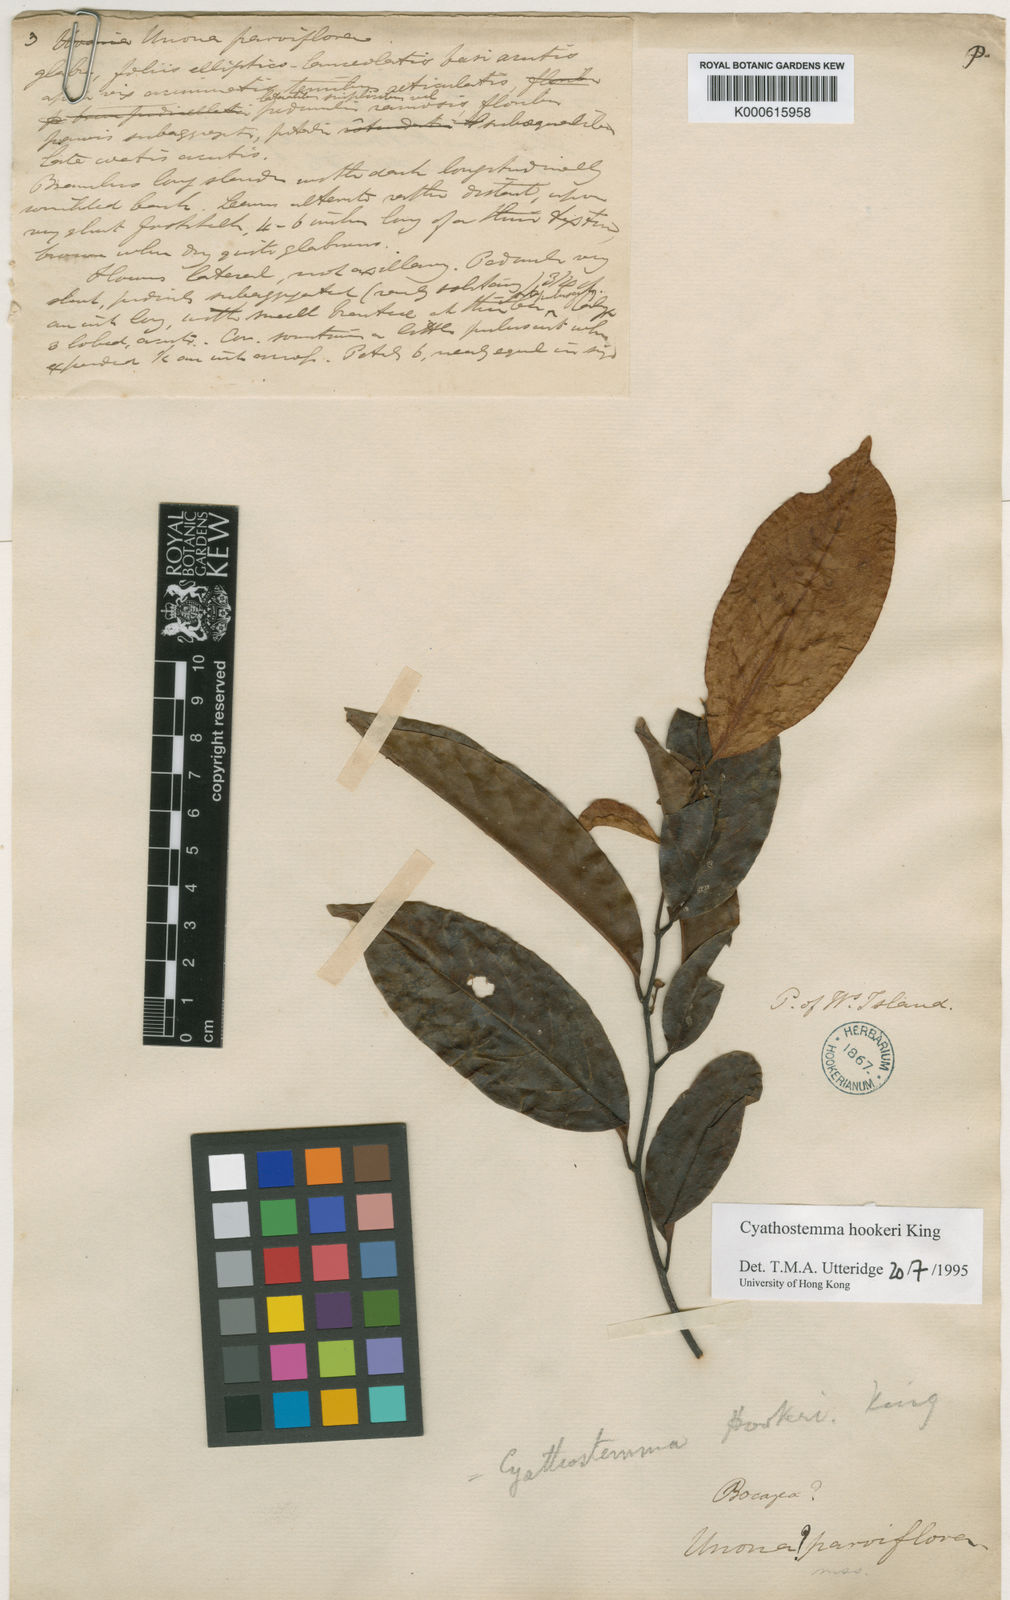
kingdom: Plantae
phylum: Tracheophyta
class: Magnoliopsida
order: Magnoliales
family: Annonaceae
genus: Uvaria
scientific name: Uvaria clementis
